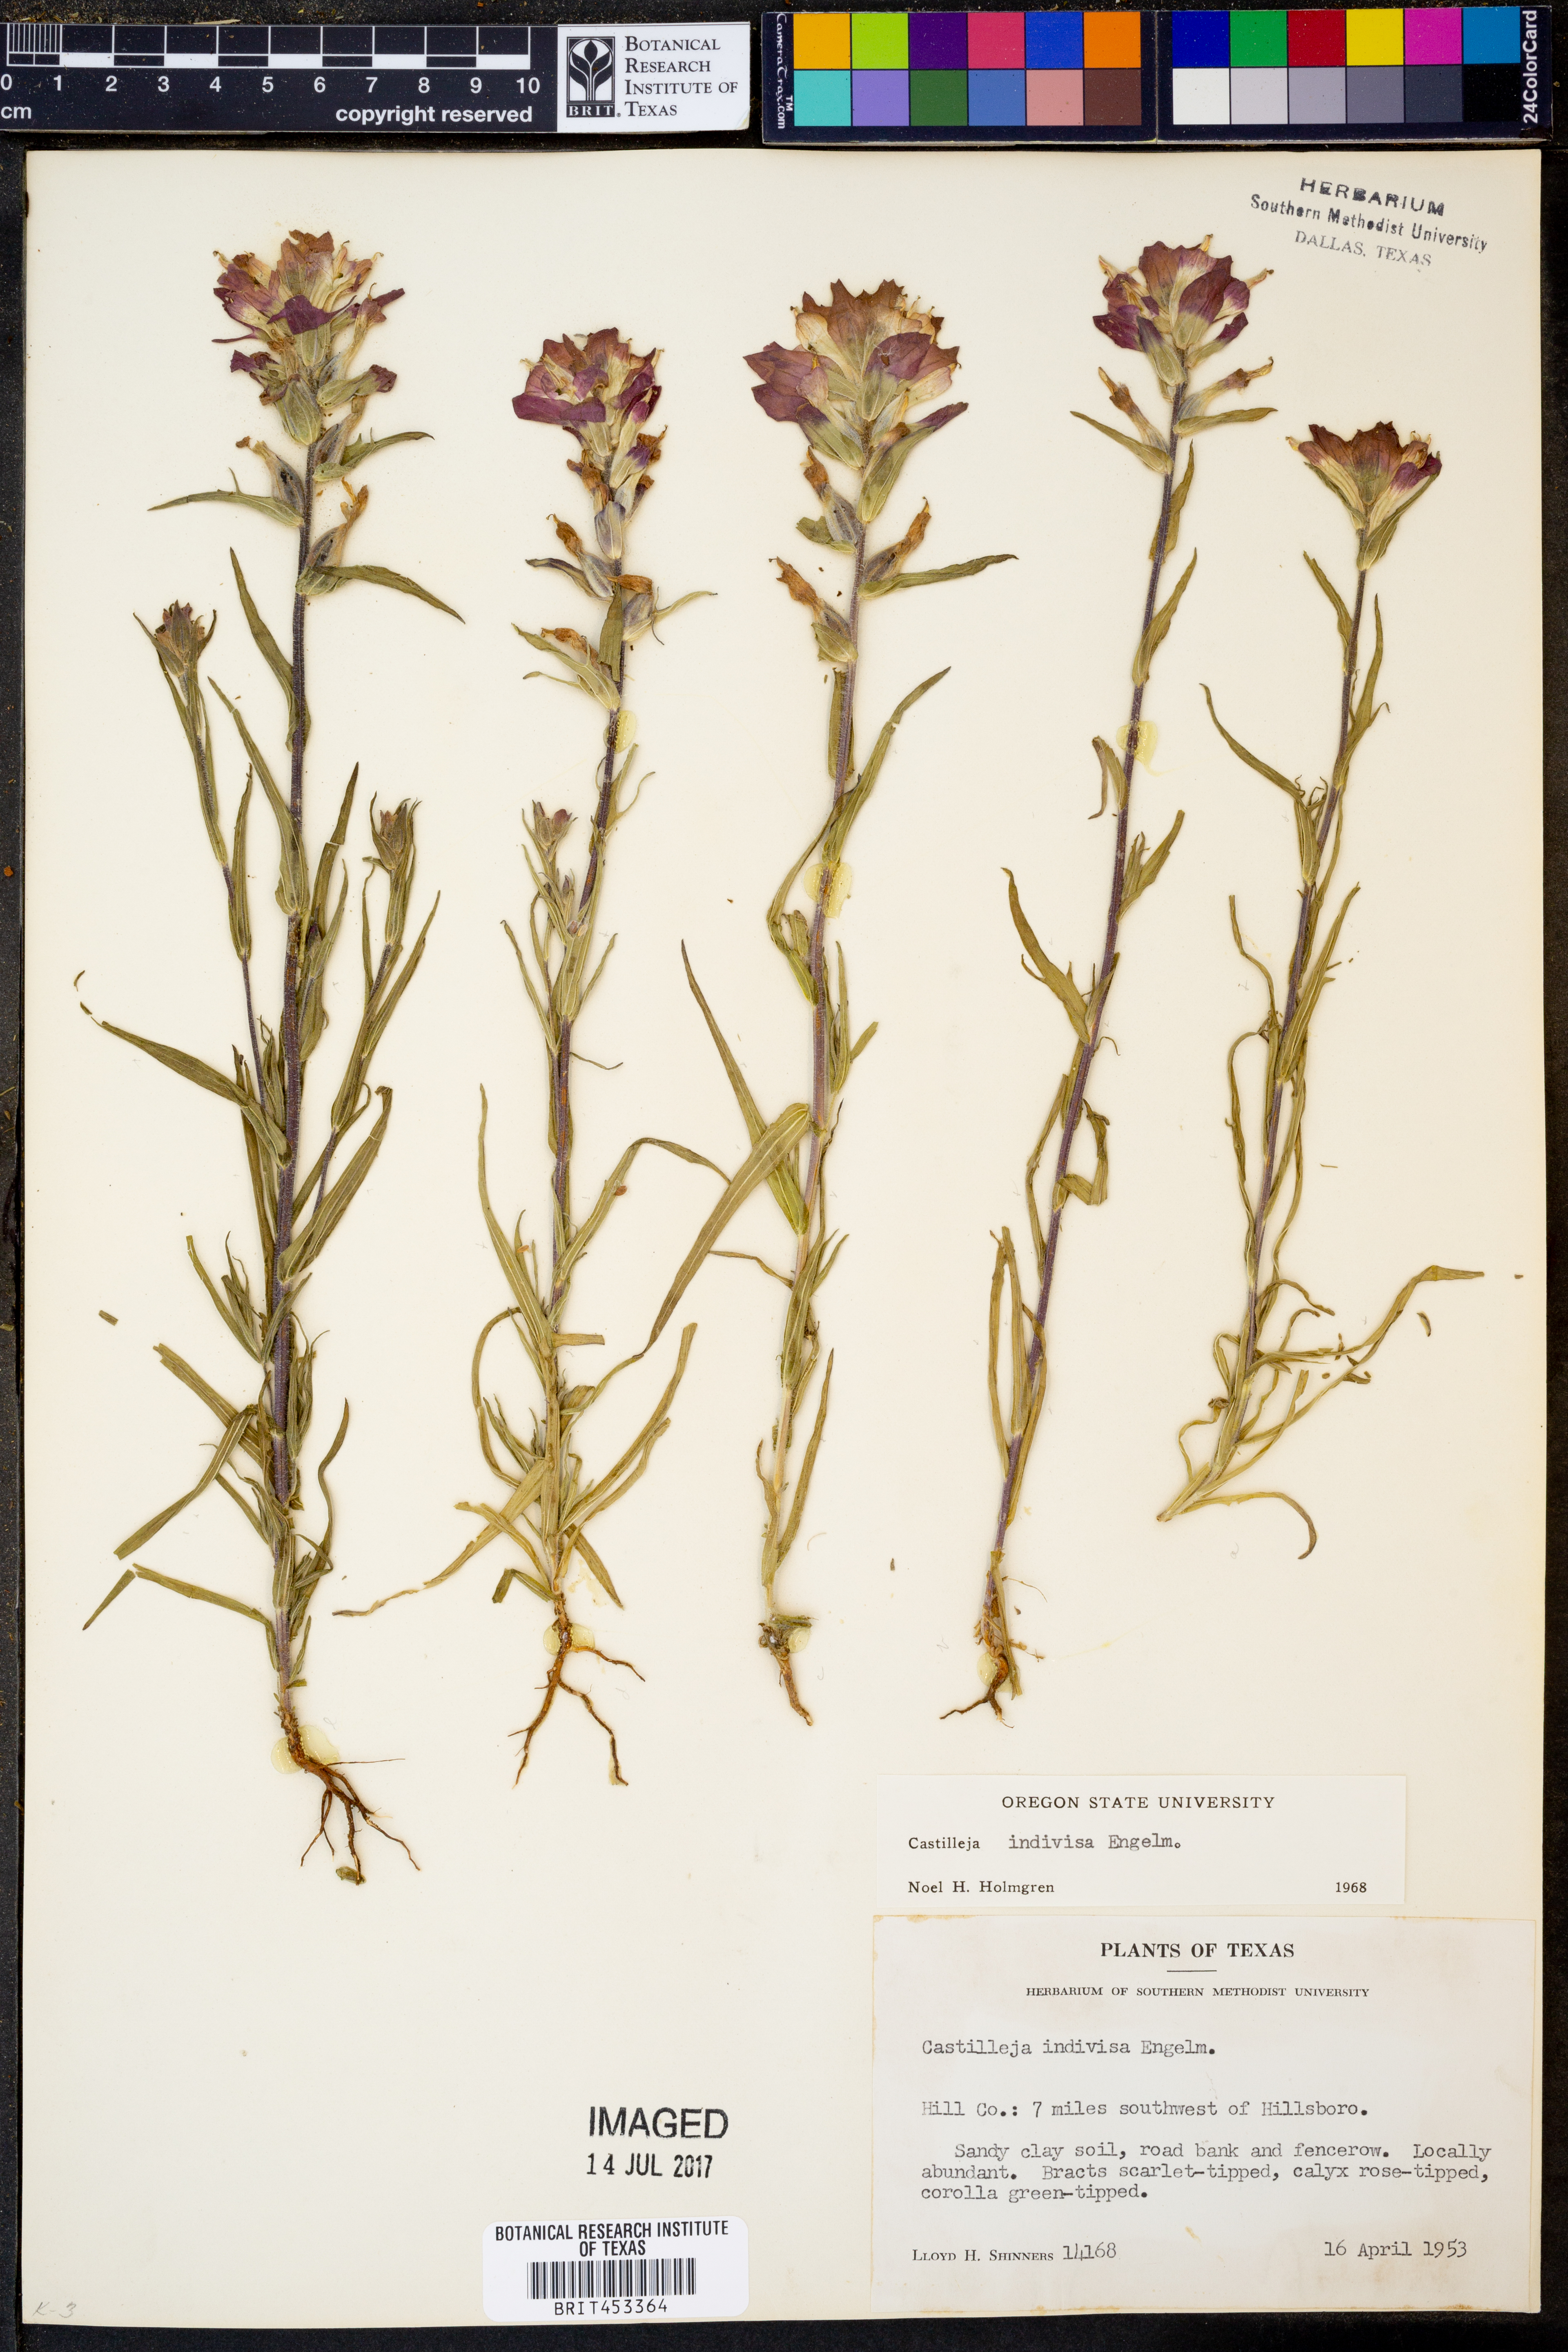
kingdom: Plantae
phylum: Tracheophyta
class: Magnoliopsida
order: Lamiales
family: Orobanchaceae
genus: Castilleja
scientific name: Castilleja indivisa
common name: Texas paintbrush
